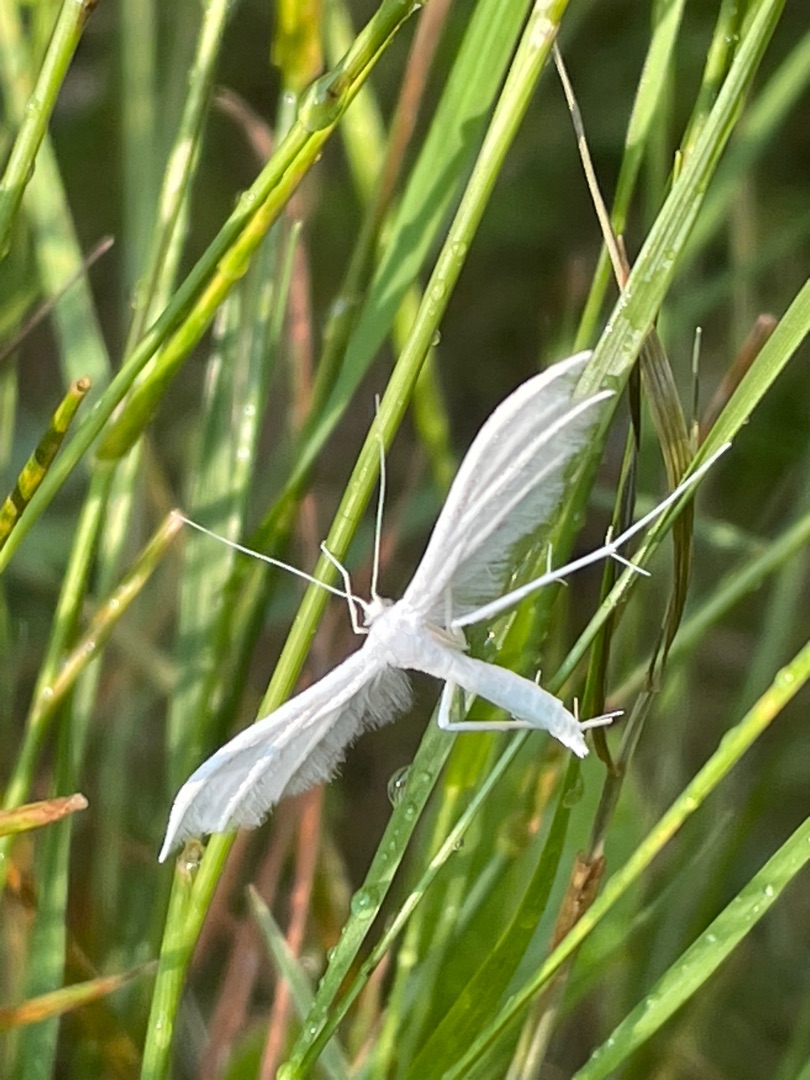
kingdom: Animalia
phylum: Arthropoda
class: Insecta
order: Lepidoptera
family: Pterophoridae
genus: Pterophorus
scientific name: Pterophorus pentadactyla
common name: Hvidt fjermøl
